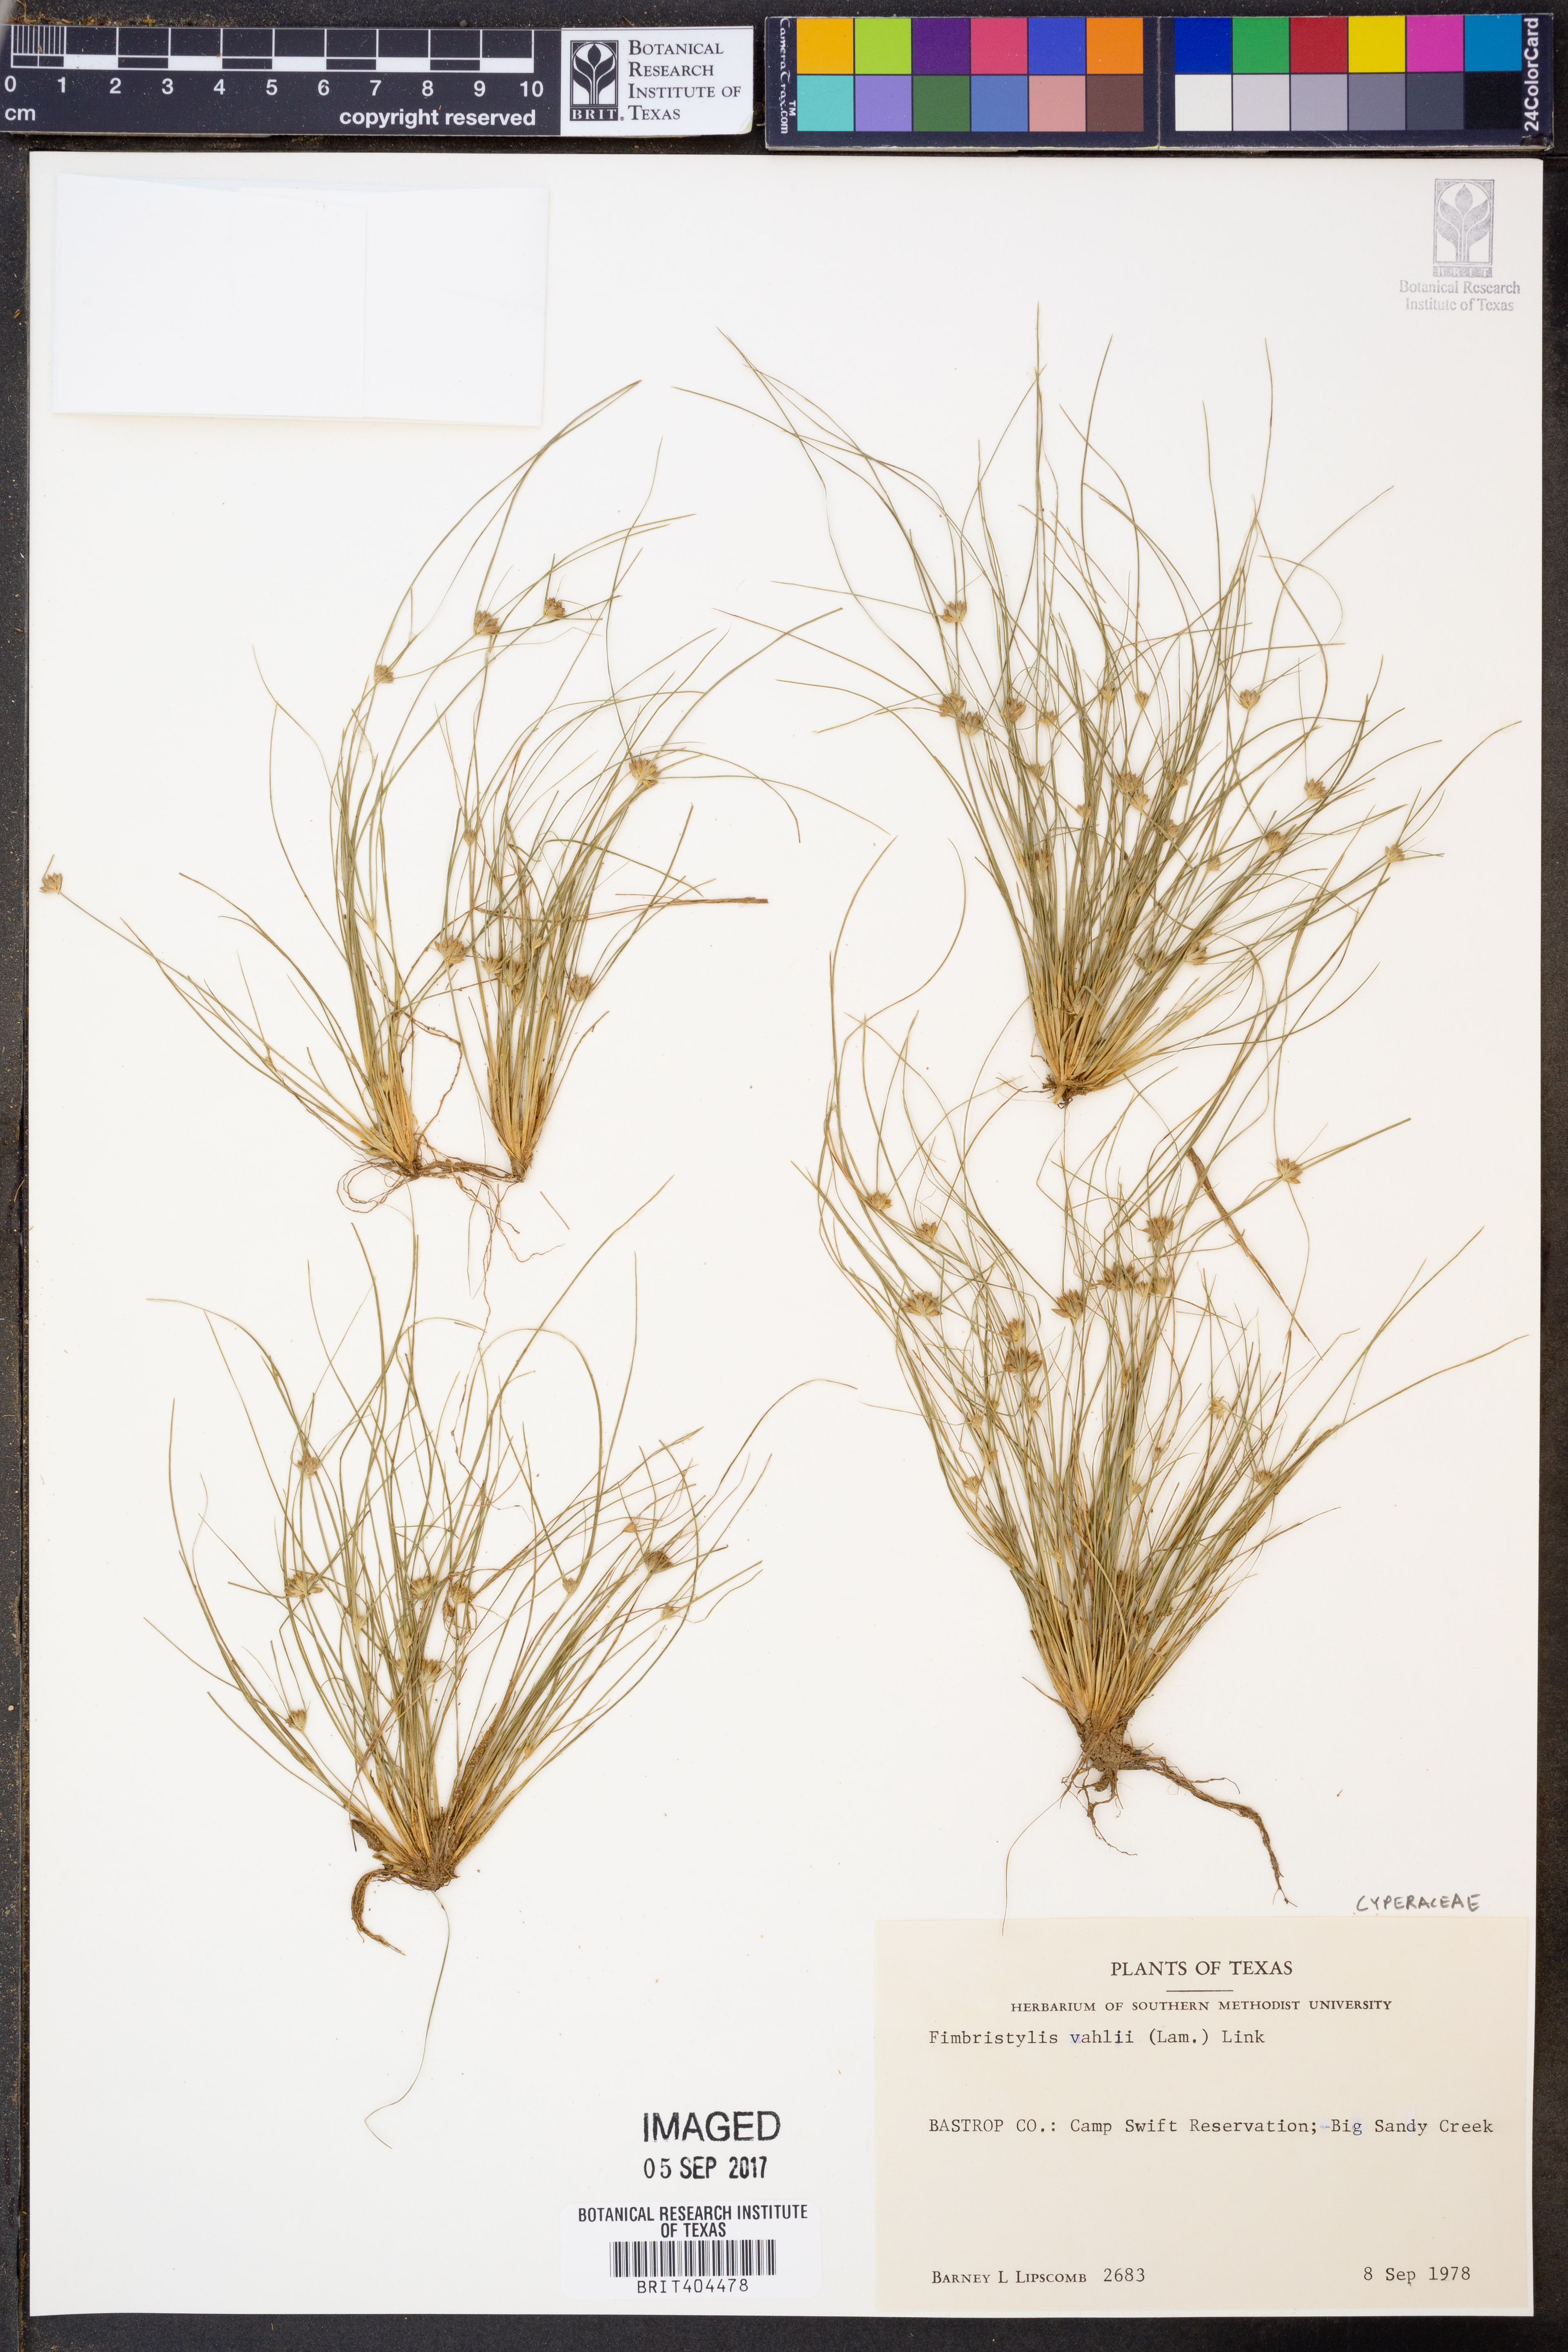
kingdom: Plantae
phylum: Tracheophyta
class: Liliopsida
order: Poales
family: Cyperaceae
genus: Fimbristylis
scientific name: Fimbristylis vahlii
